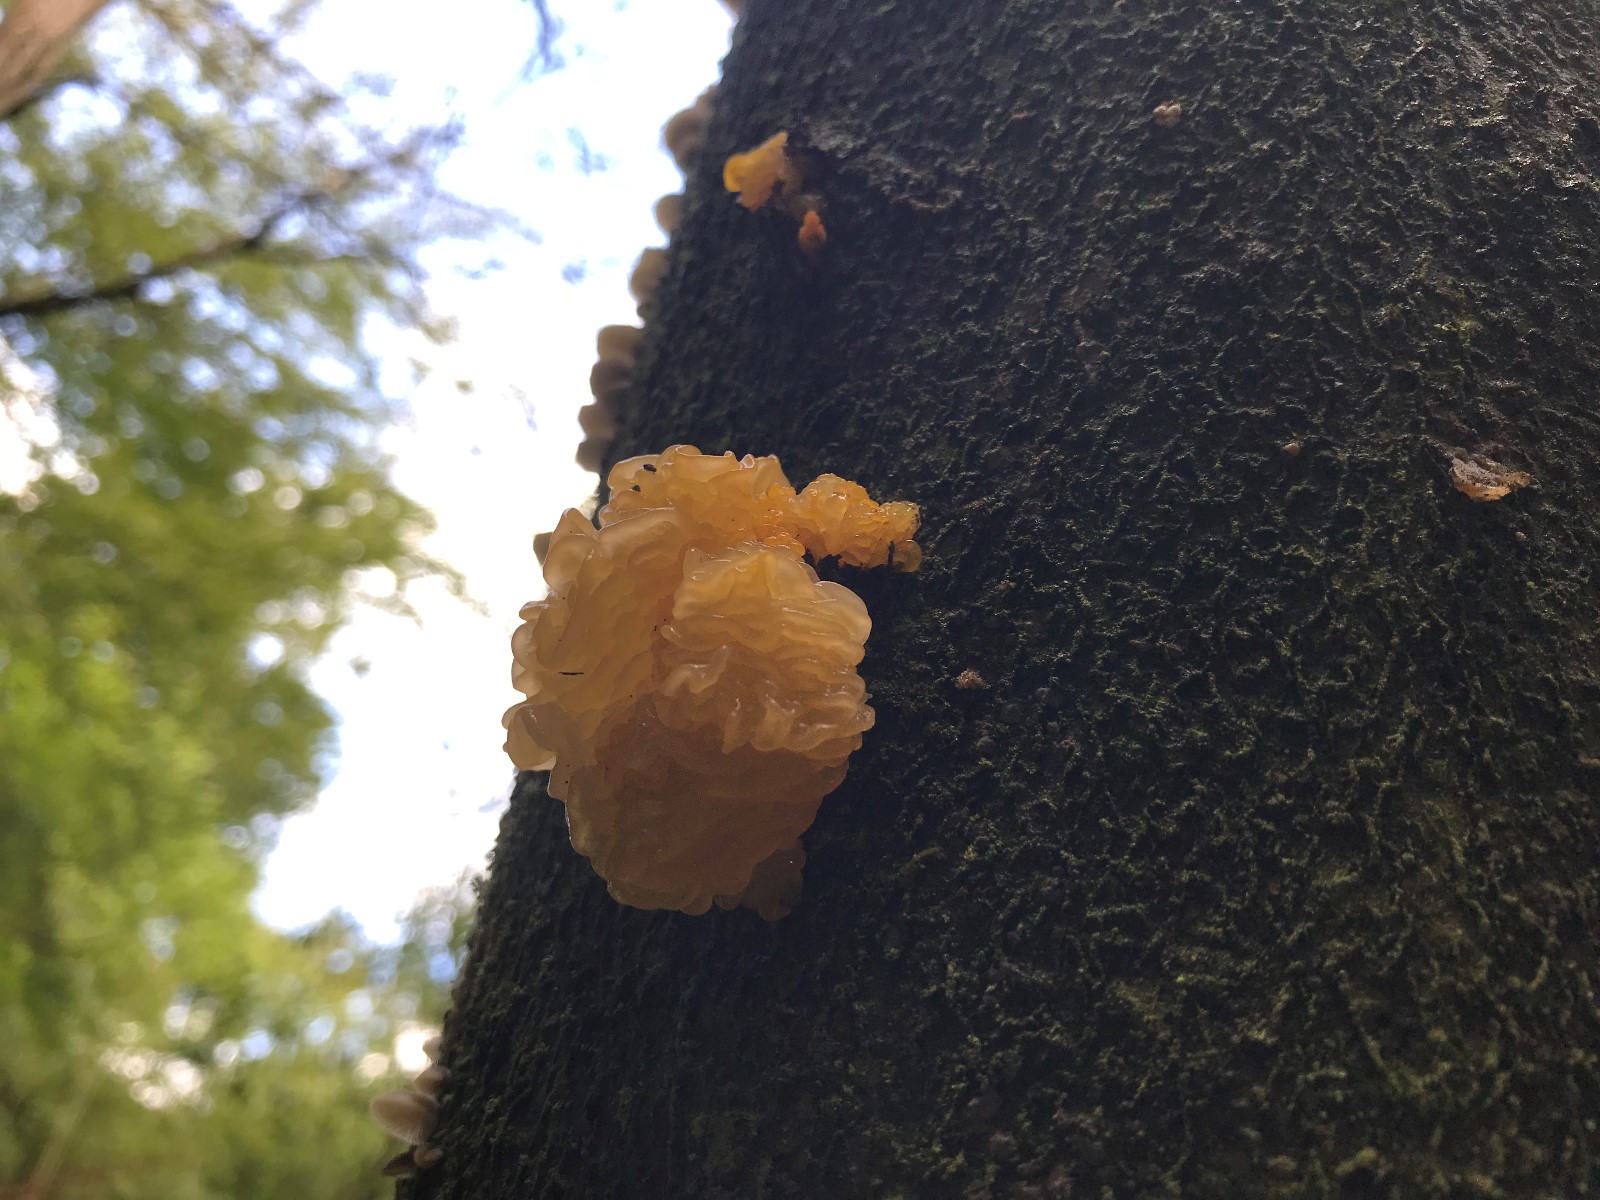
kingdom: Fungi
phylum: Basidiomycota
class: Tremellomycetes
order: Tremellales
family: Tremellaceae
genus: Tremella
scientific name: Tremella mesenterica
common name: gul bævresvamp
